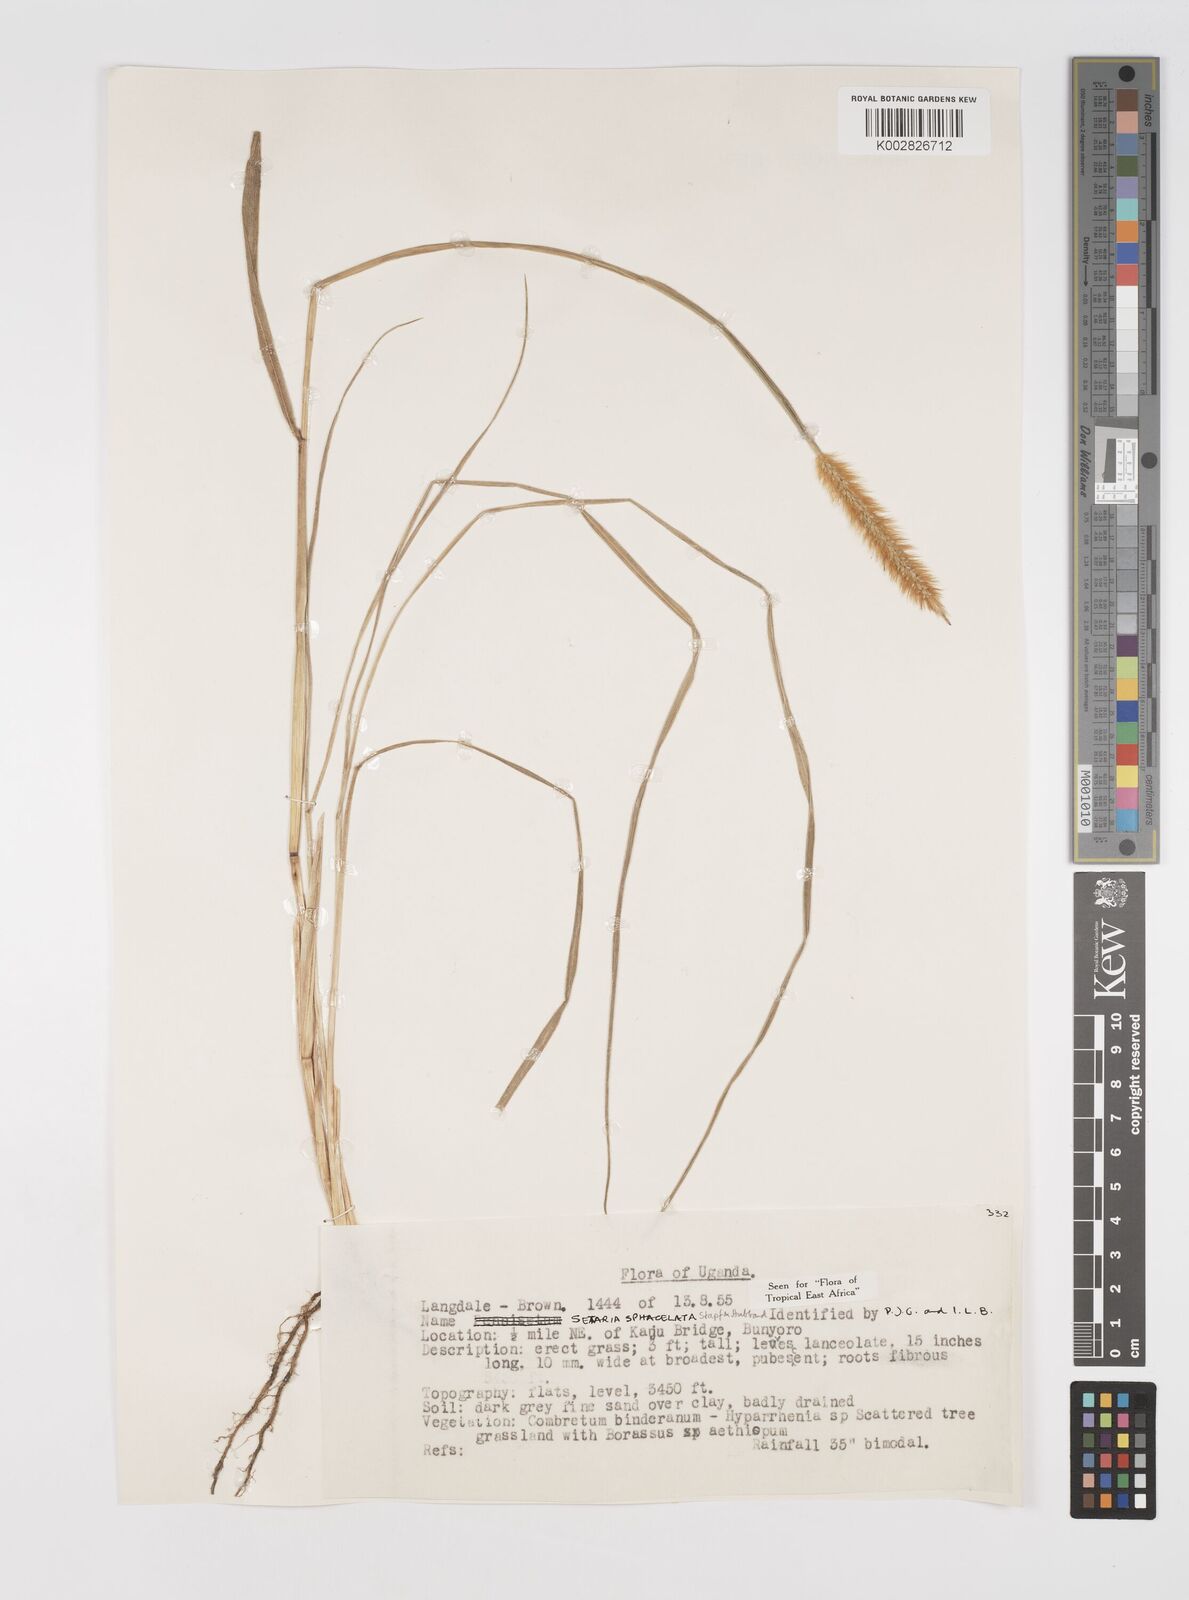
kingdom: Plantae
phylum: Tracheophyta
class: Liliopsida
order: Poales
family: Poaceae
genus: Setaria
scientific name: Setaria sphacelata
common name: African bristlegrass
